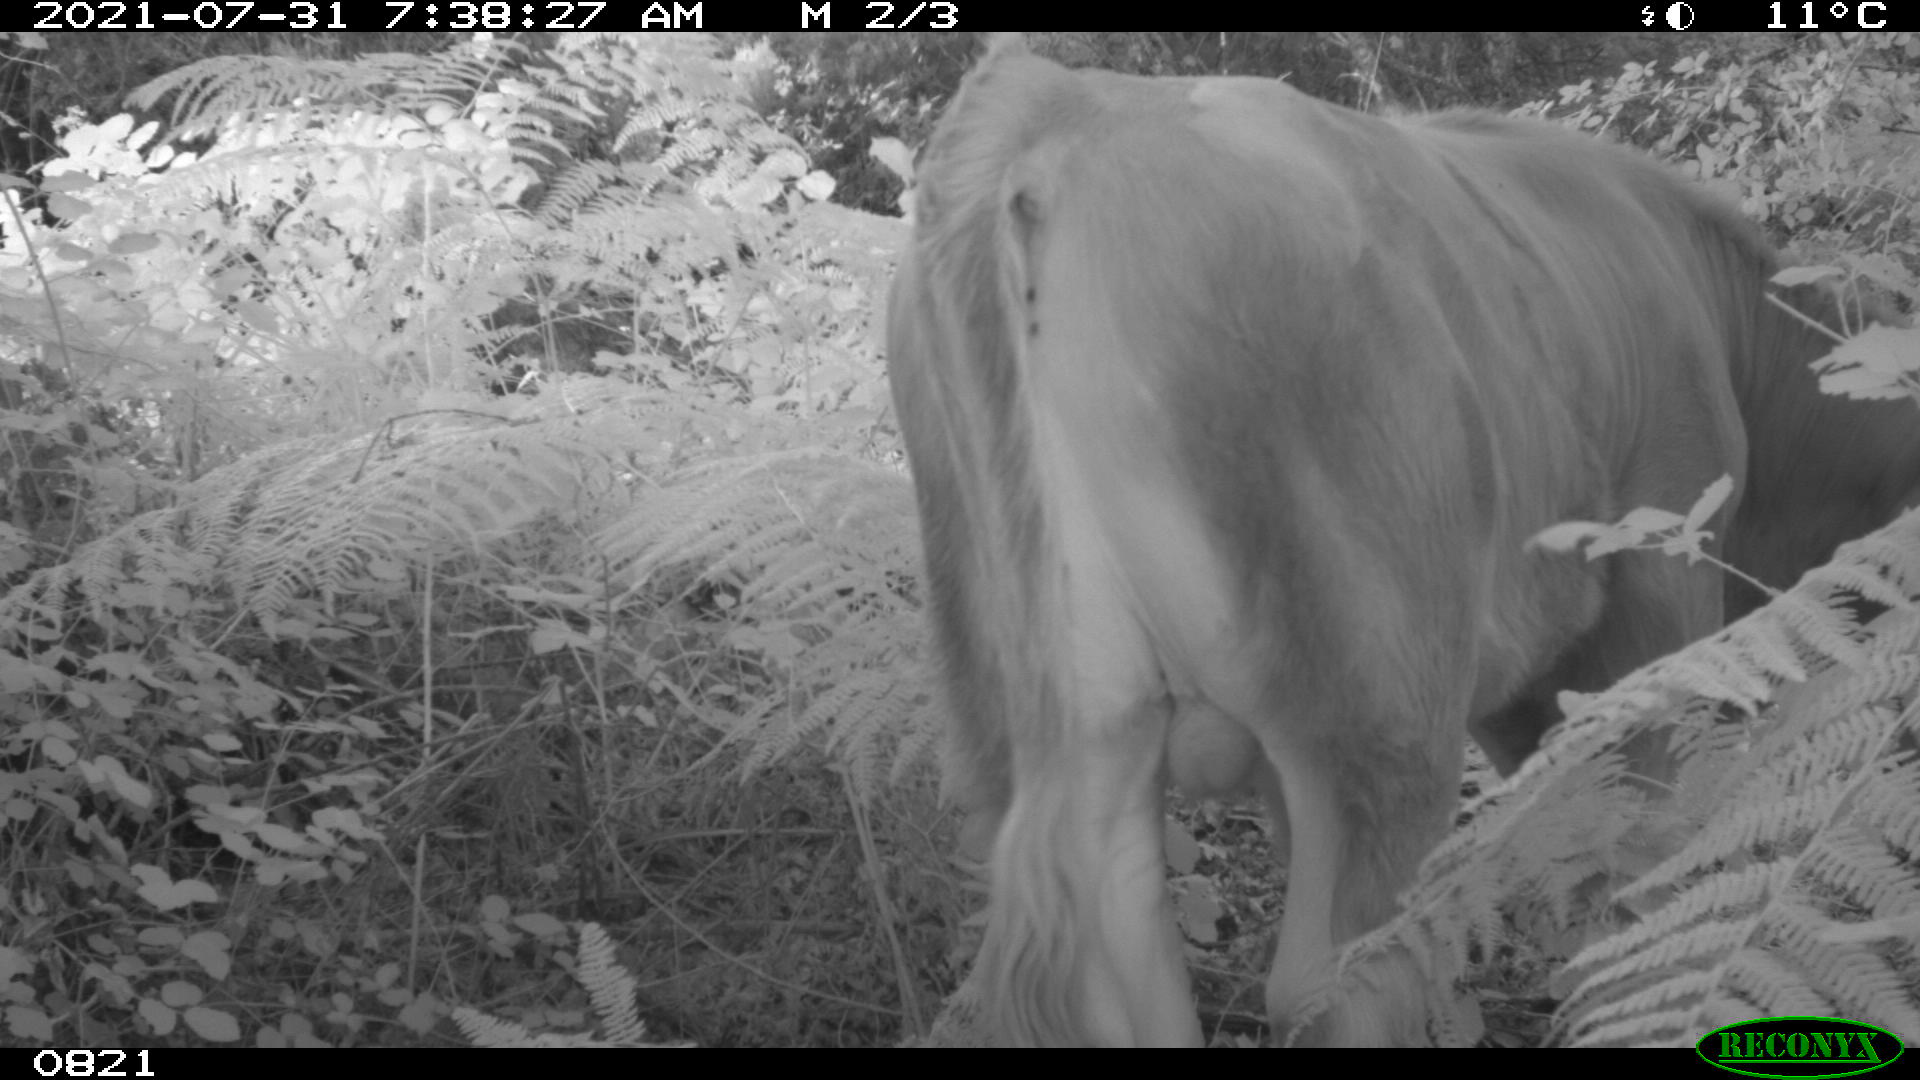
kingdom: Animalia
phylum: Chordata
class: Mammalia
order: Artiodactyla
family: Bovidae
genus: Bos
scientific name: Bos taurus
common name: Domesticated cattle
